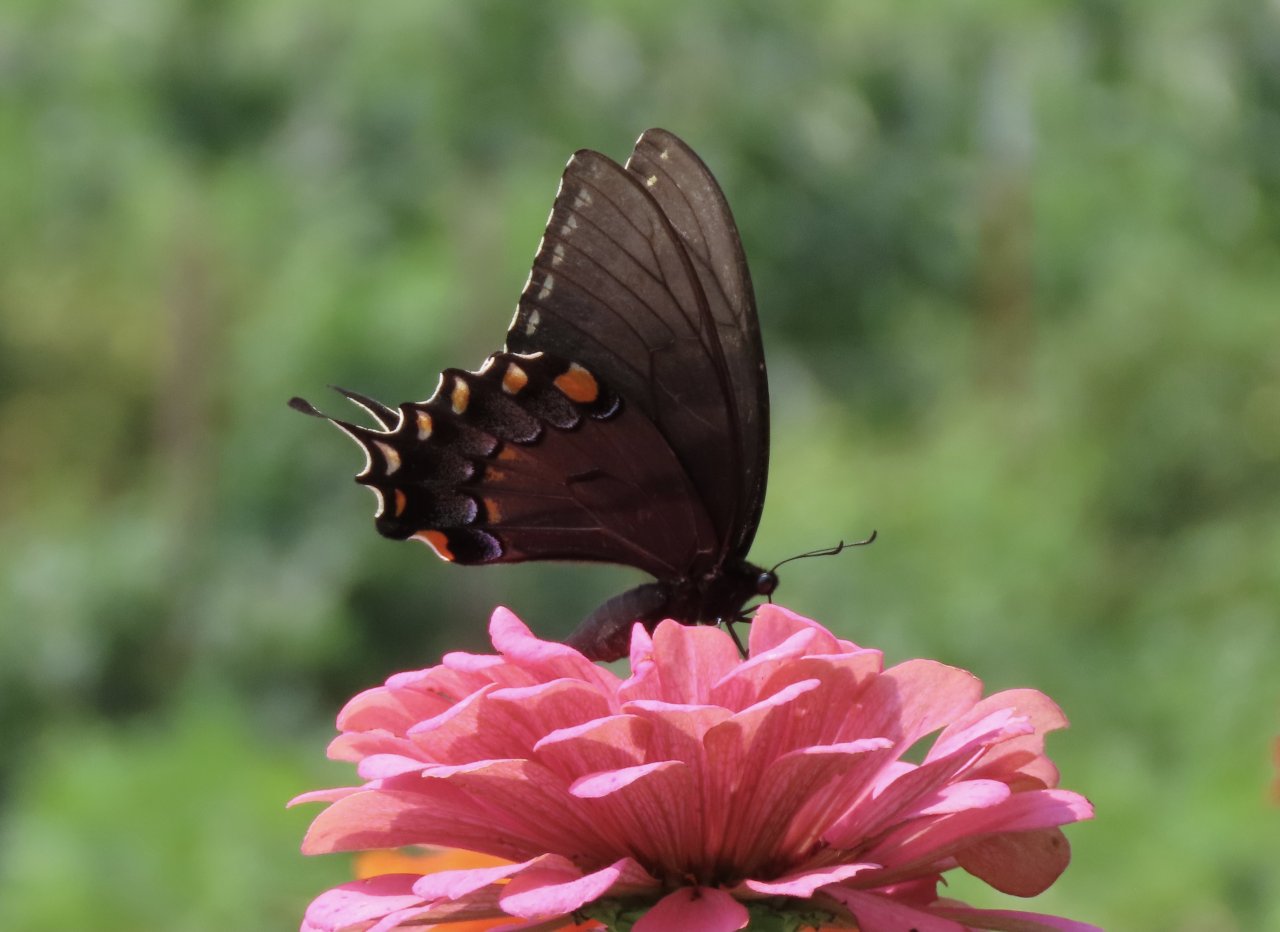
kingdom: Animalia
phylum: Arthropoda
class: Insecta
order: Lepidoptera
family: Papilionidae
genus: Pterourus
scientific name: Pterourus glaucus
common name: Eastern Tiger Swallowtail
